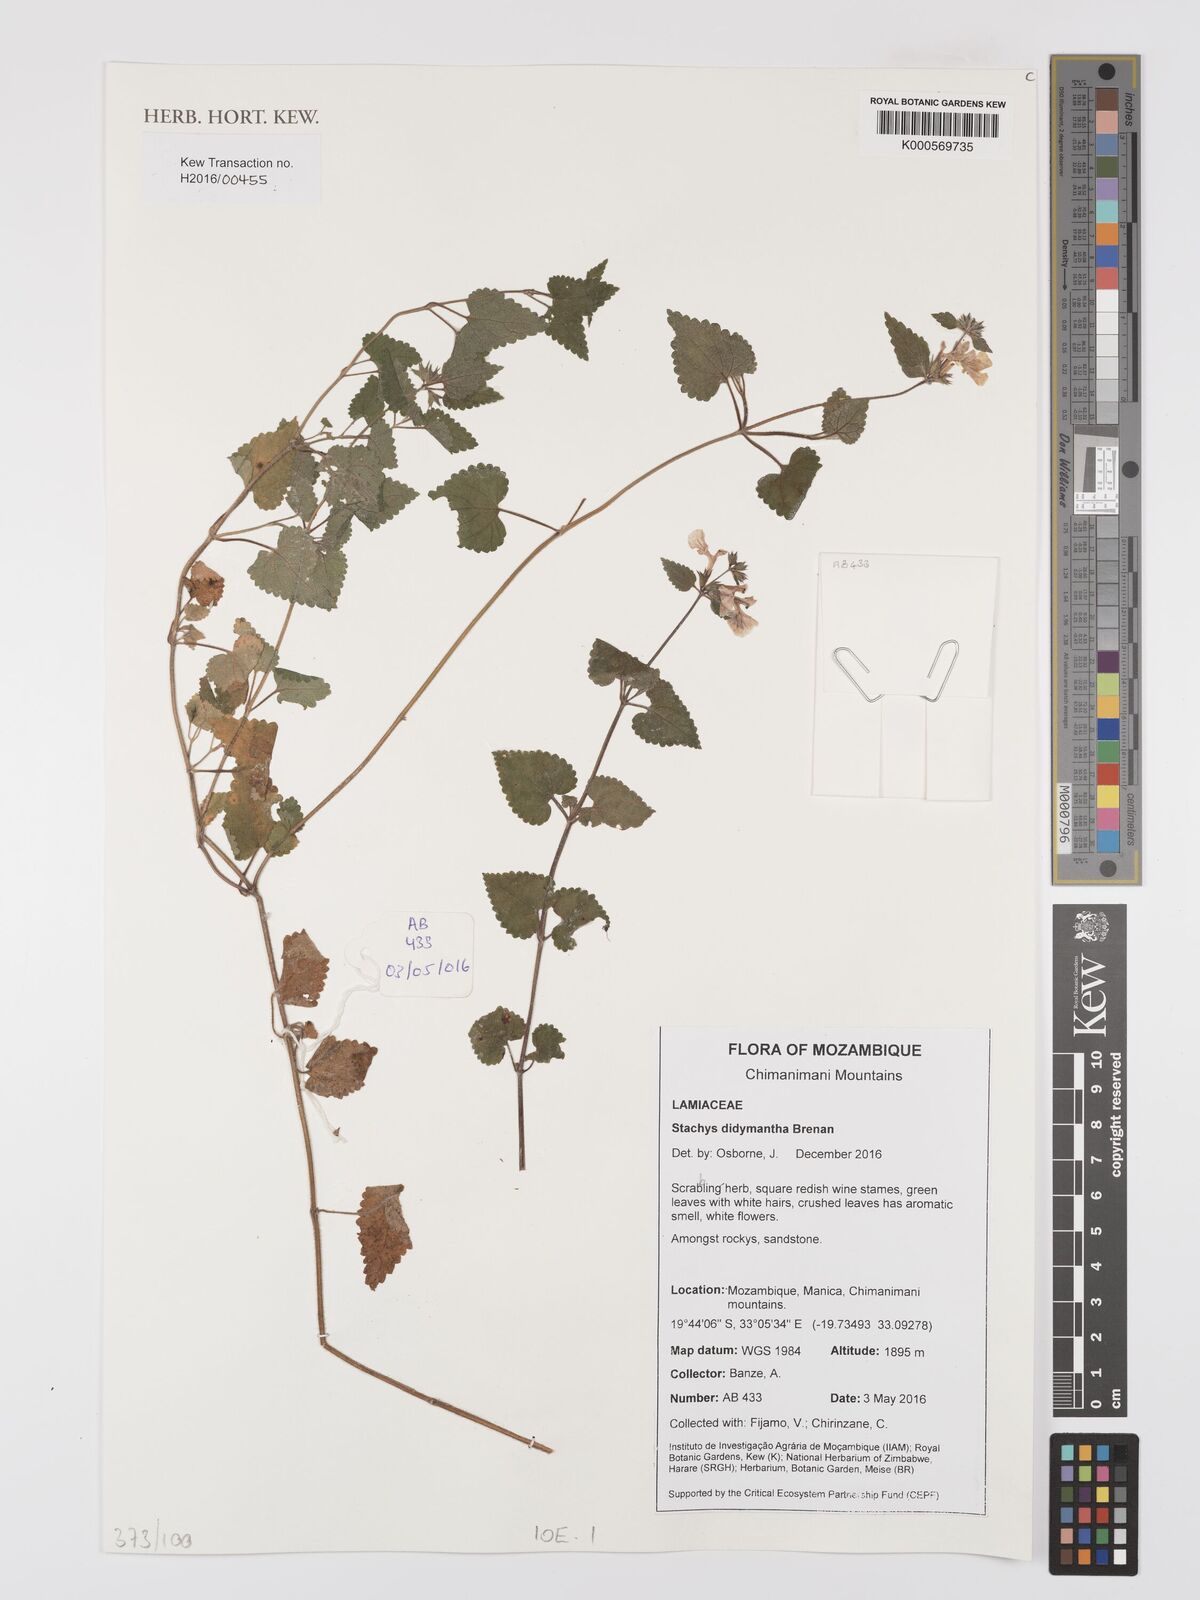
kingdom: Plantae
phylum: Tracheophyta
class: Magnoliopsida
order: Lamiales
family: Lamiaceae
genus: Stachys
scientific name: Stachys didymantha
